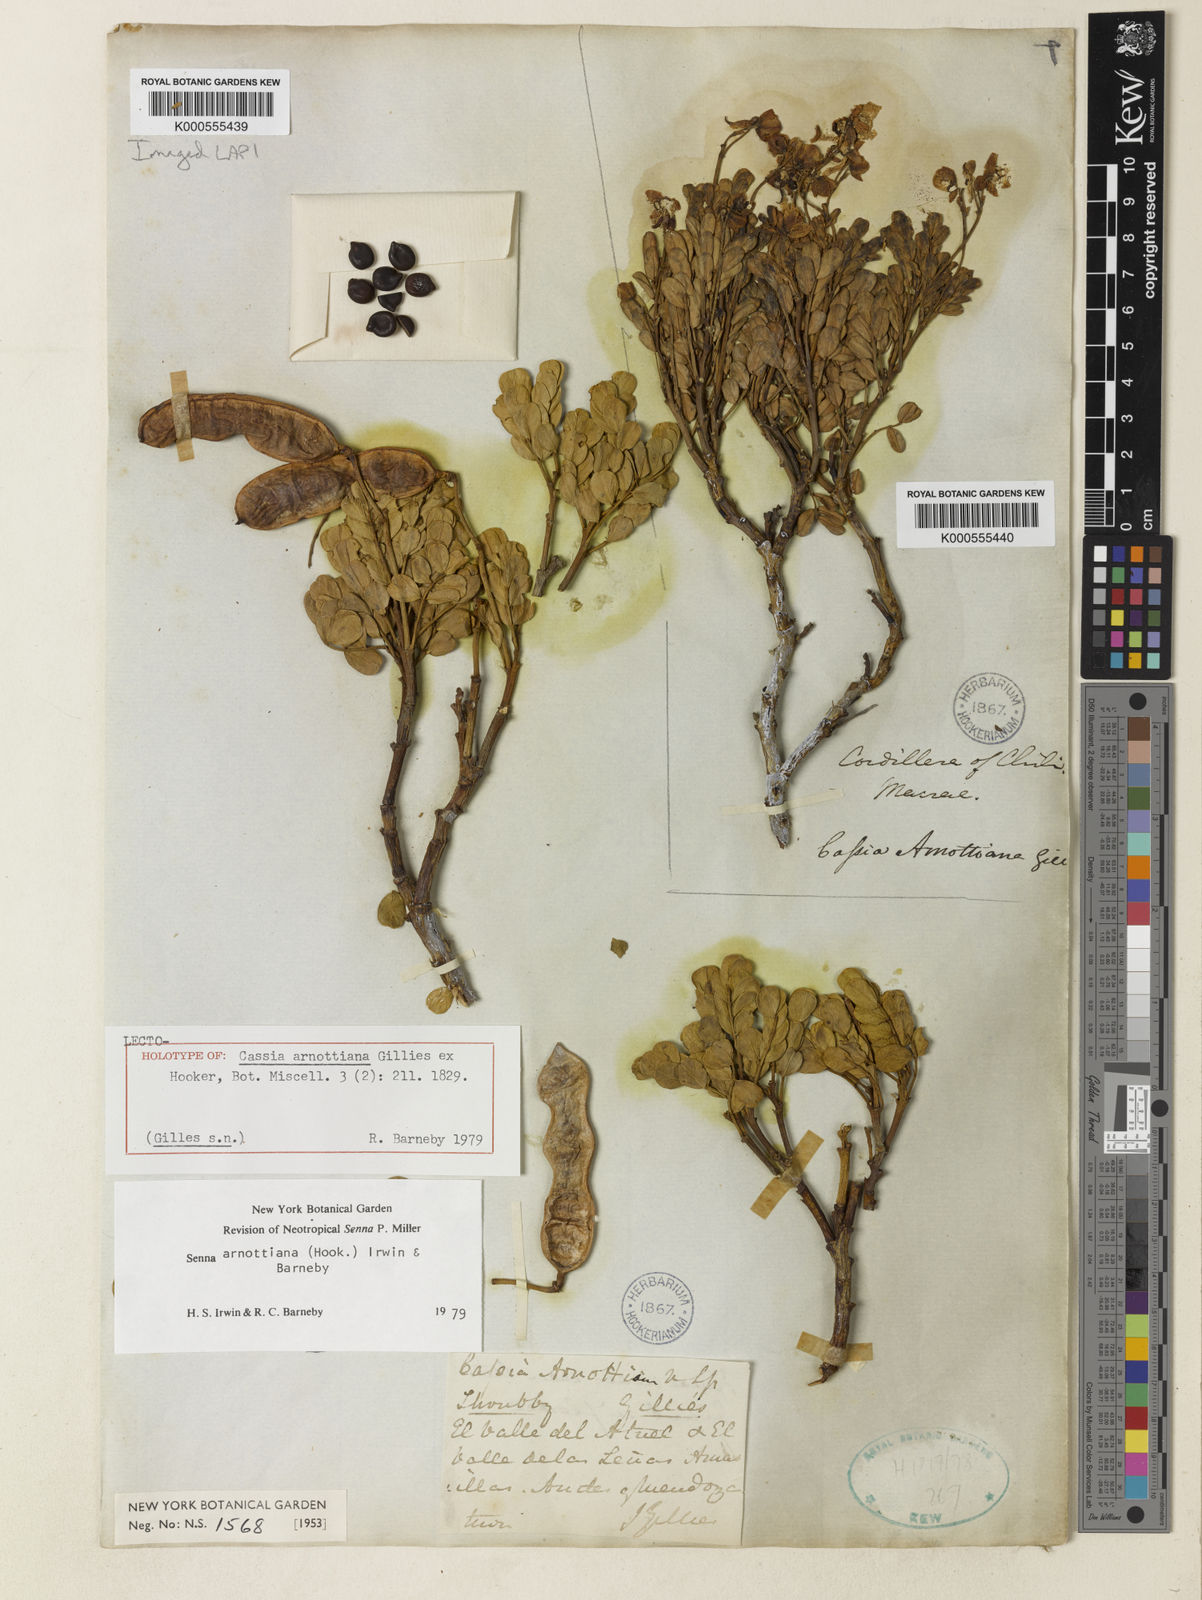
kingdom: Plantae
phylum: Tracheophyta
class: Magnoliopsida
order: Fabales
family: Fabaceae
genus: Senna
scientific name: Senna arnottiana
